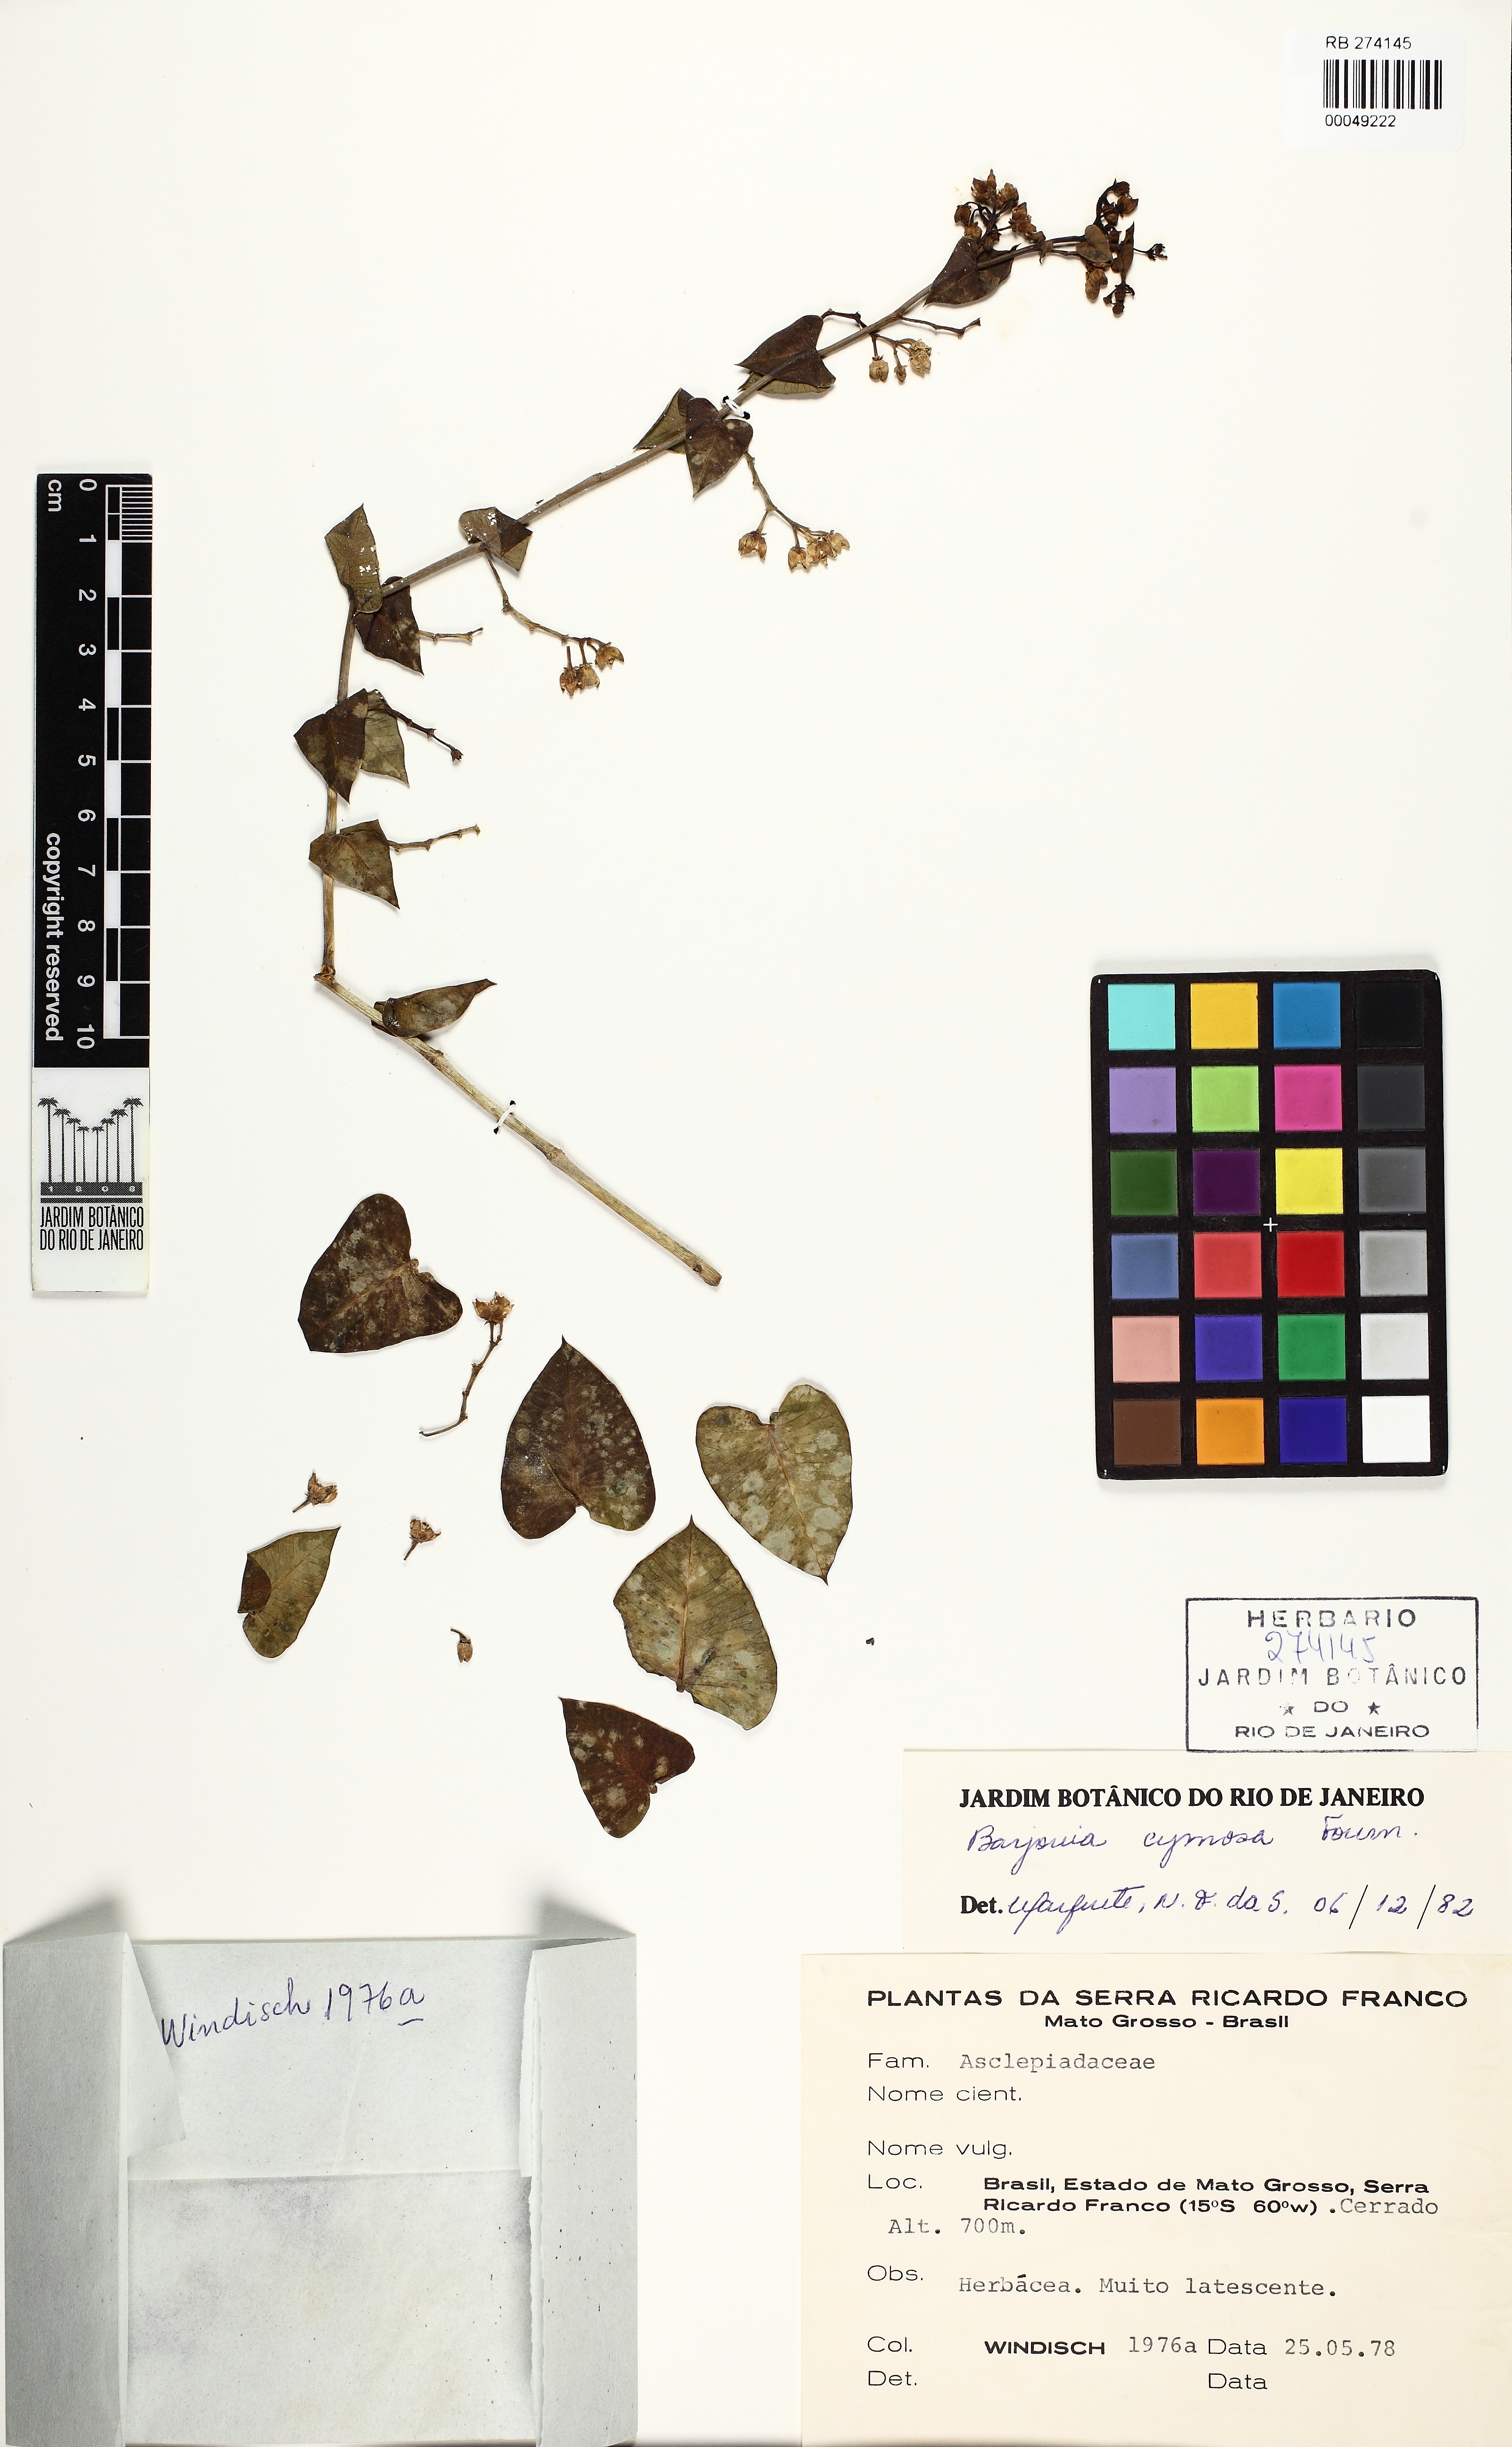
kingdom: Plantae
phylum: Tracheophyta
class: Magnoliopsida
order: Gentianales
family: Apocynaceae
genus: Barjonia
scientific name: Barjonia cymosa
